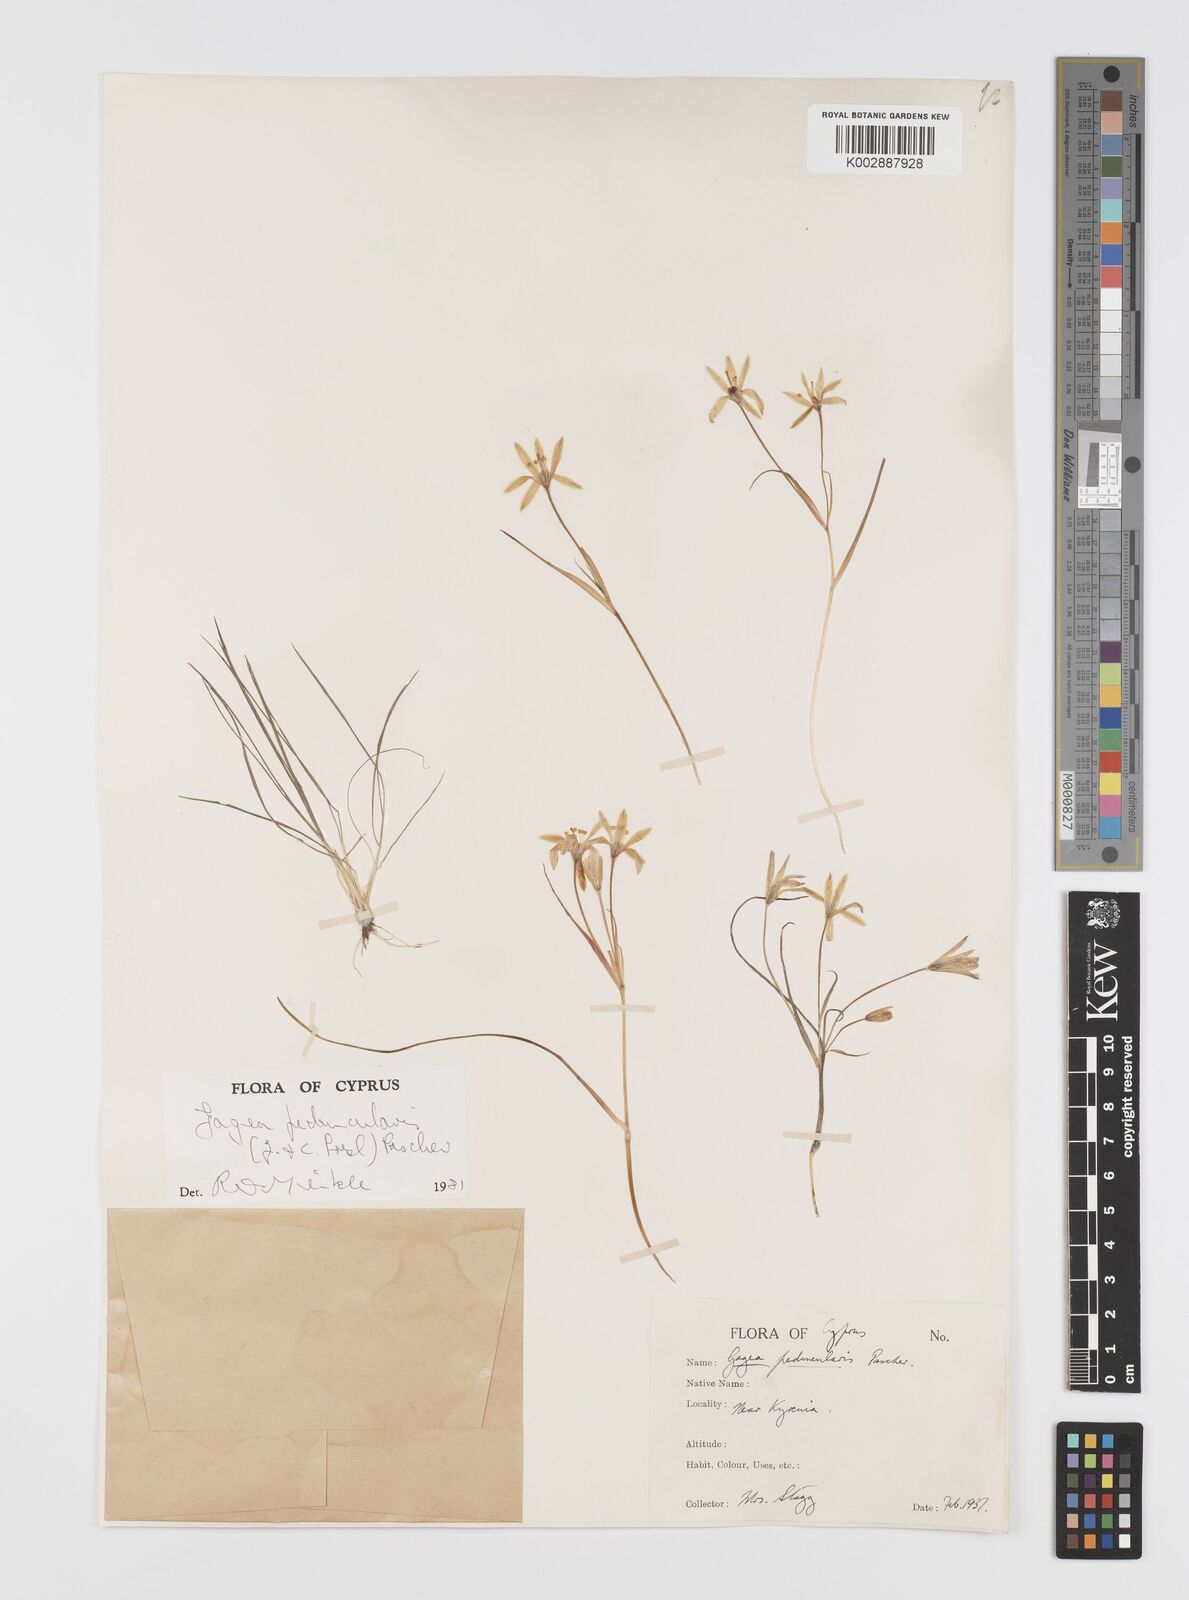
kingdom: Plantae
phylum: Tracheophyta
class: Liliopsida
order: Liliales
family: Liliaceae
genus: Gagea
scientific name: Gagea peduncularis
